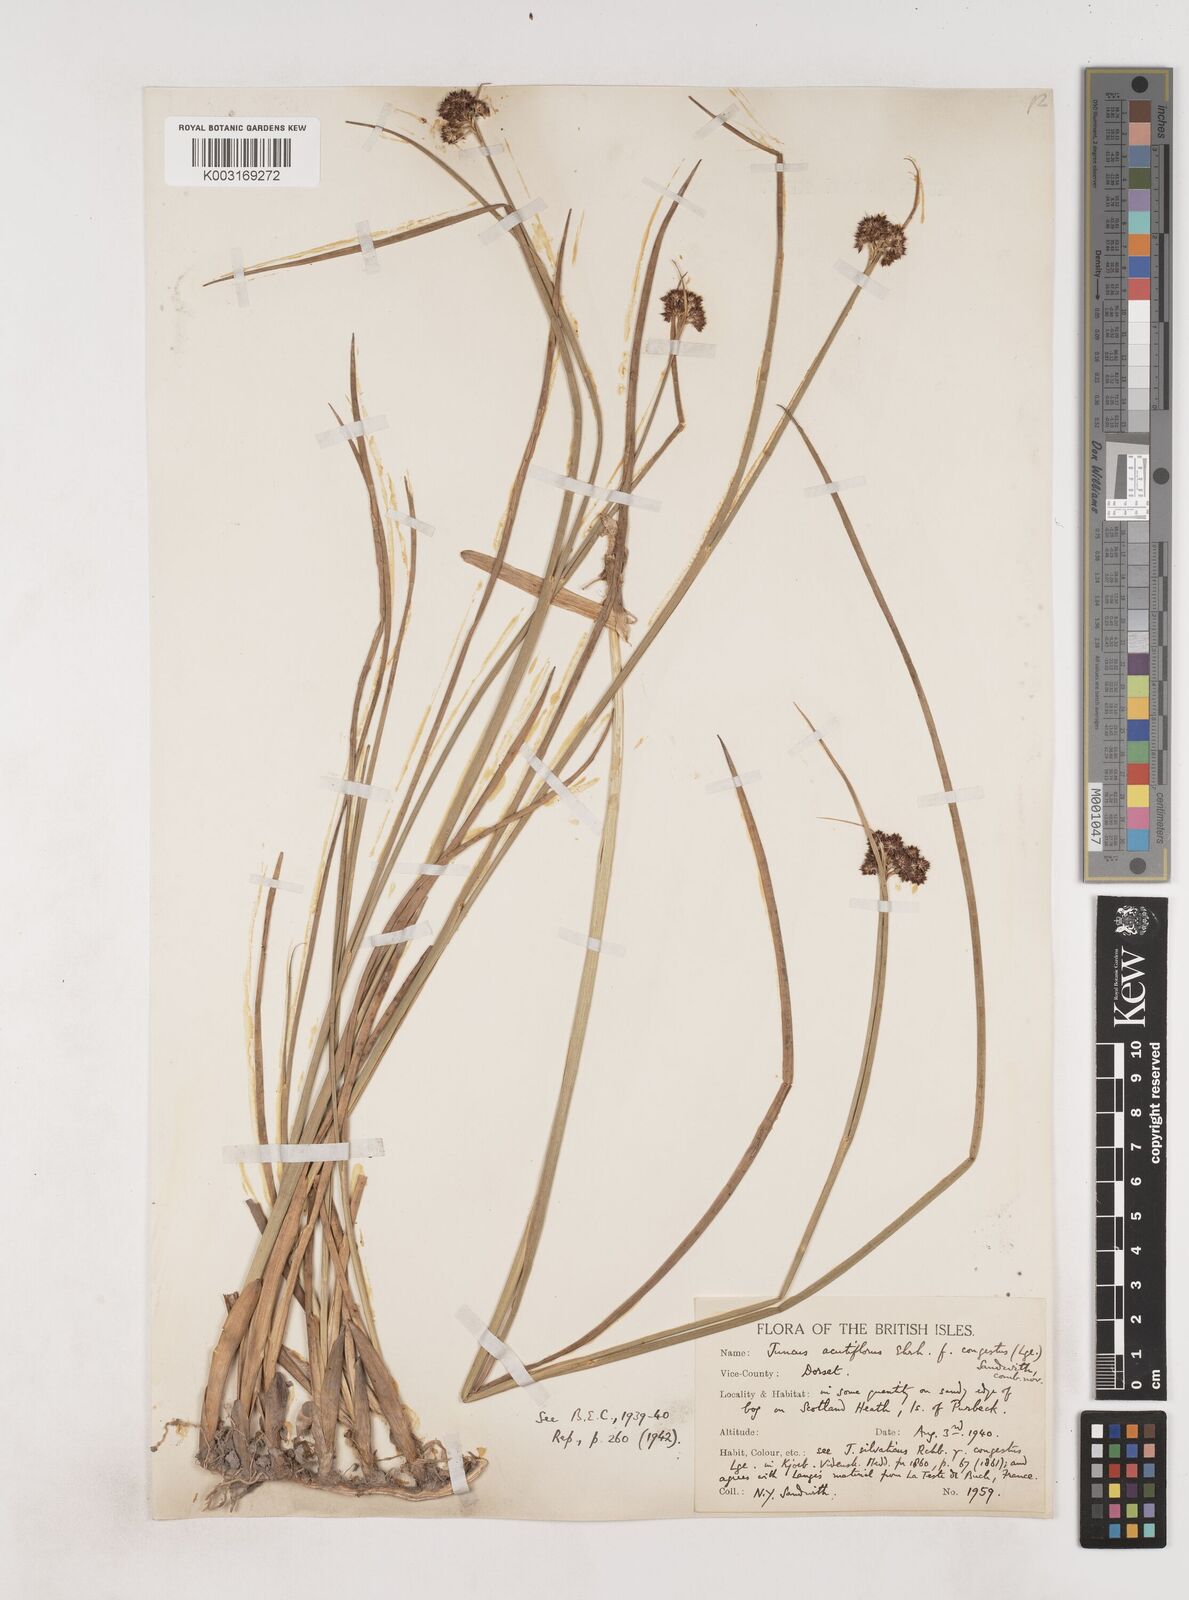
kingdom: Plantae
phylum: Tracheophyta
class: Liliopsida
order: Poales
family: Juncaceae
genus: Juncus
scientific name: Juncus acutiflorus
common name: Sharp-flowered rush
